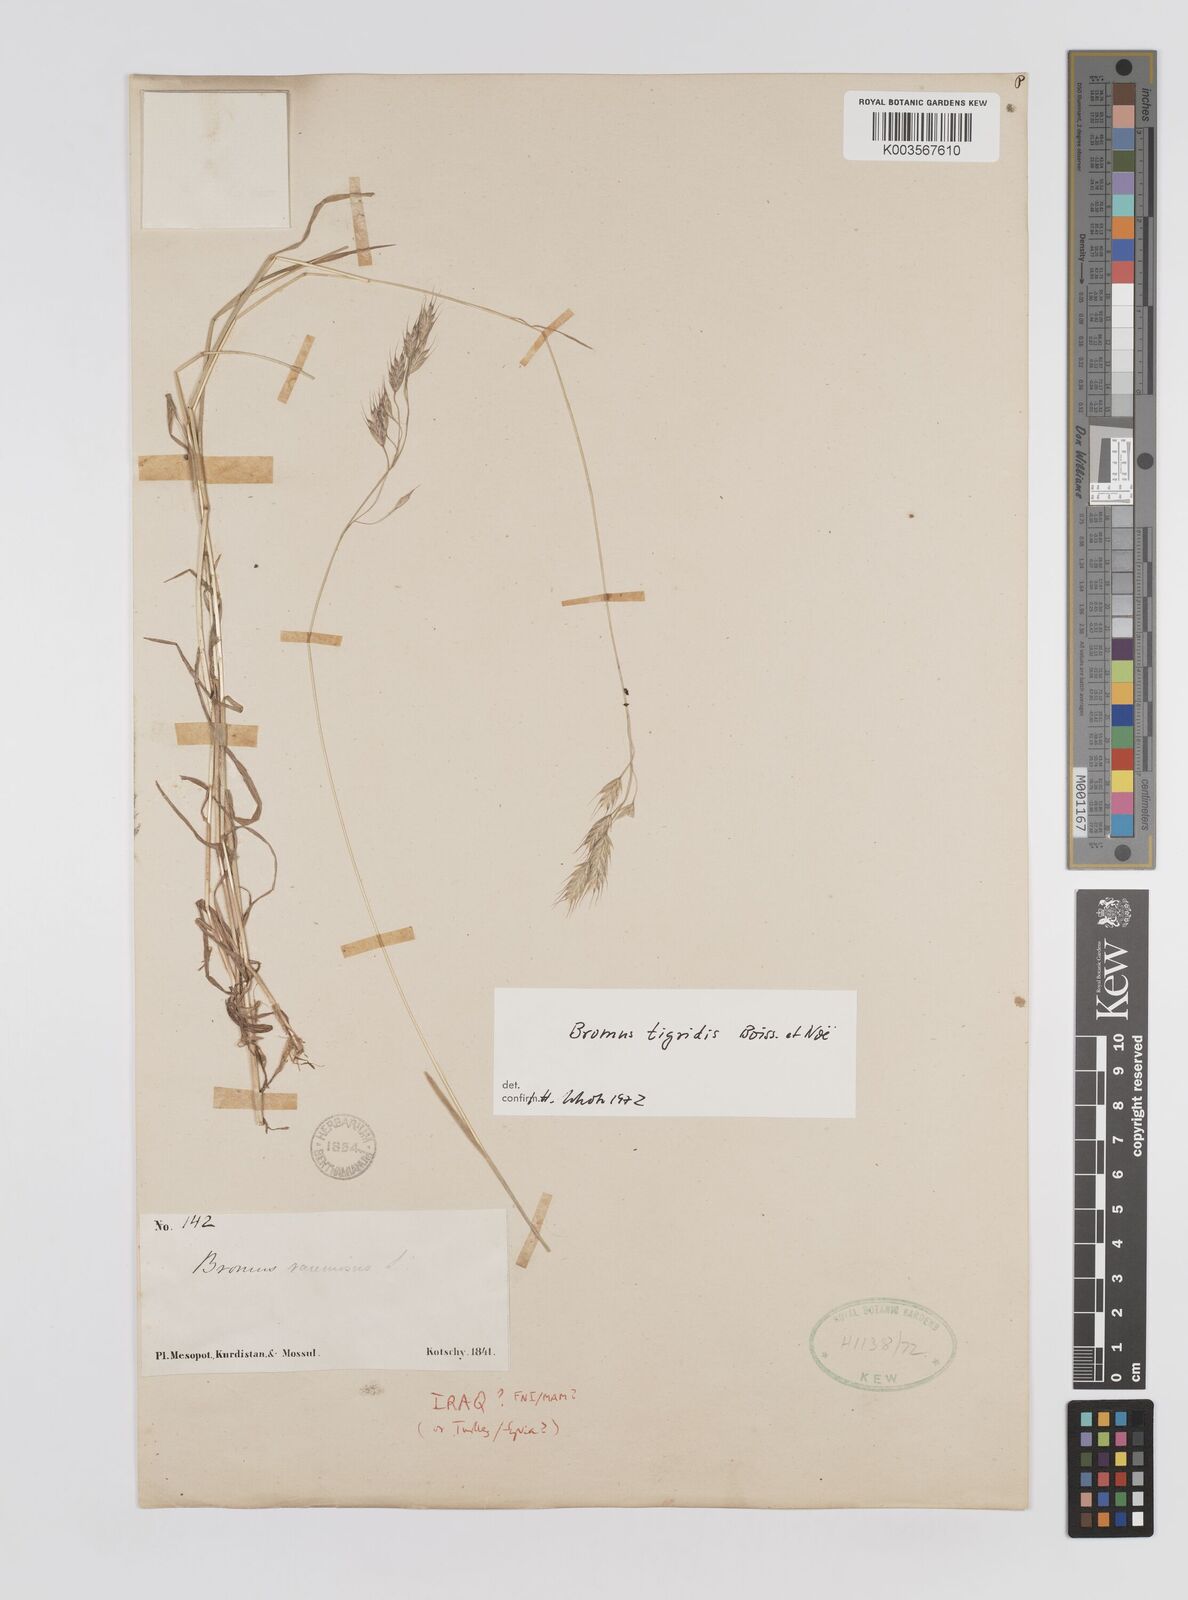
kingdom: Plantae
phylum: Tracheophyta
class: Liliopsida
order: Poales
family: Poaceae
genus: Bromus
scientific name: Bromus brachystachys
